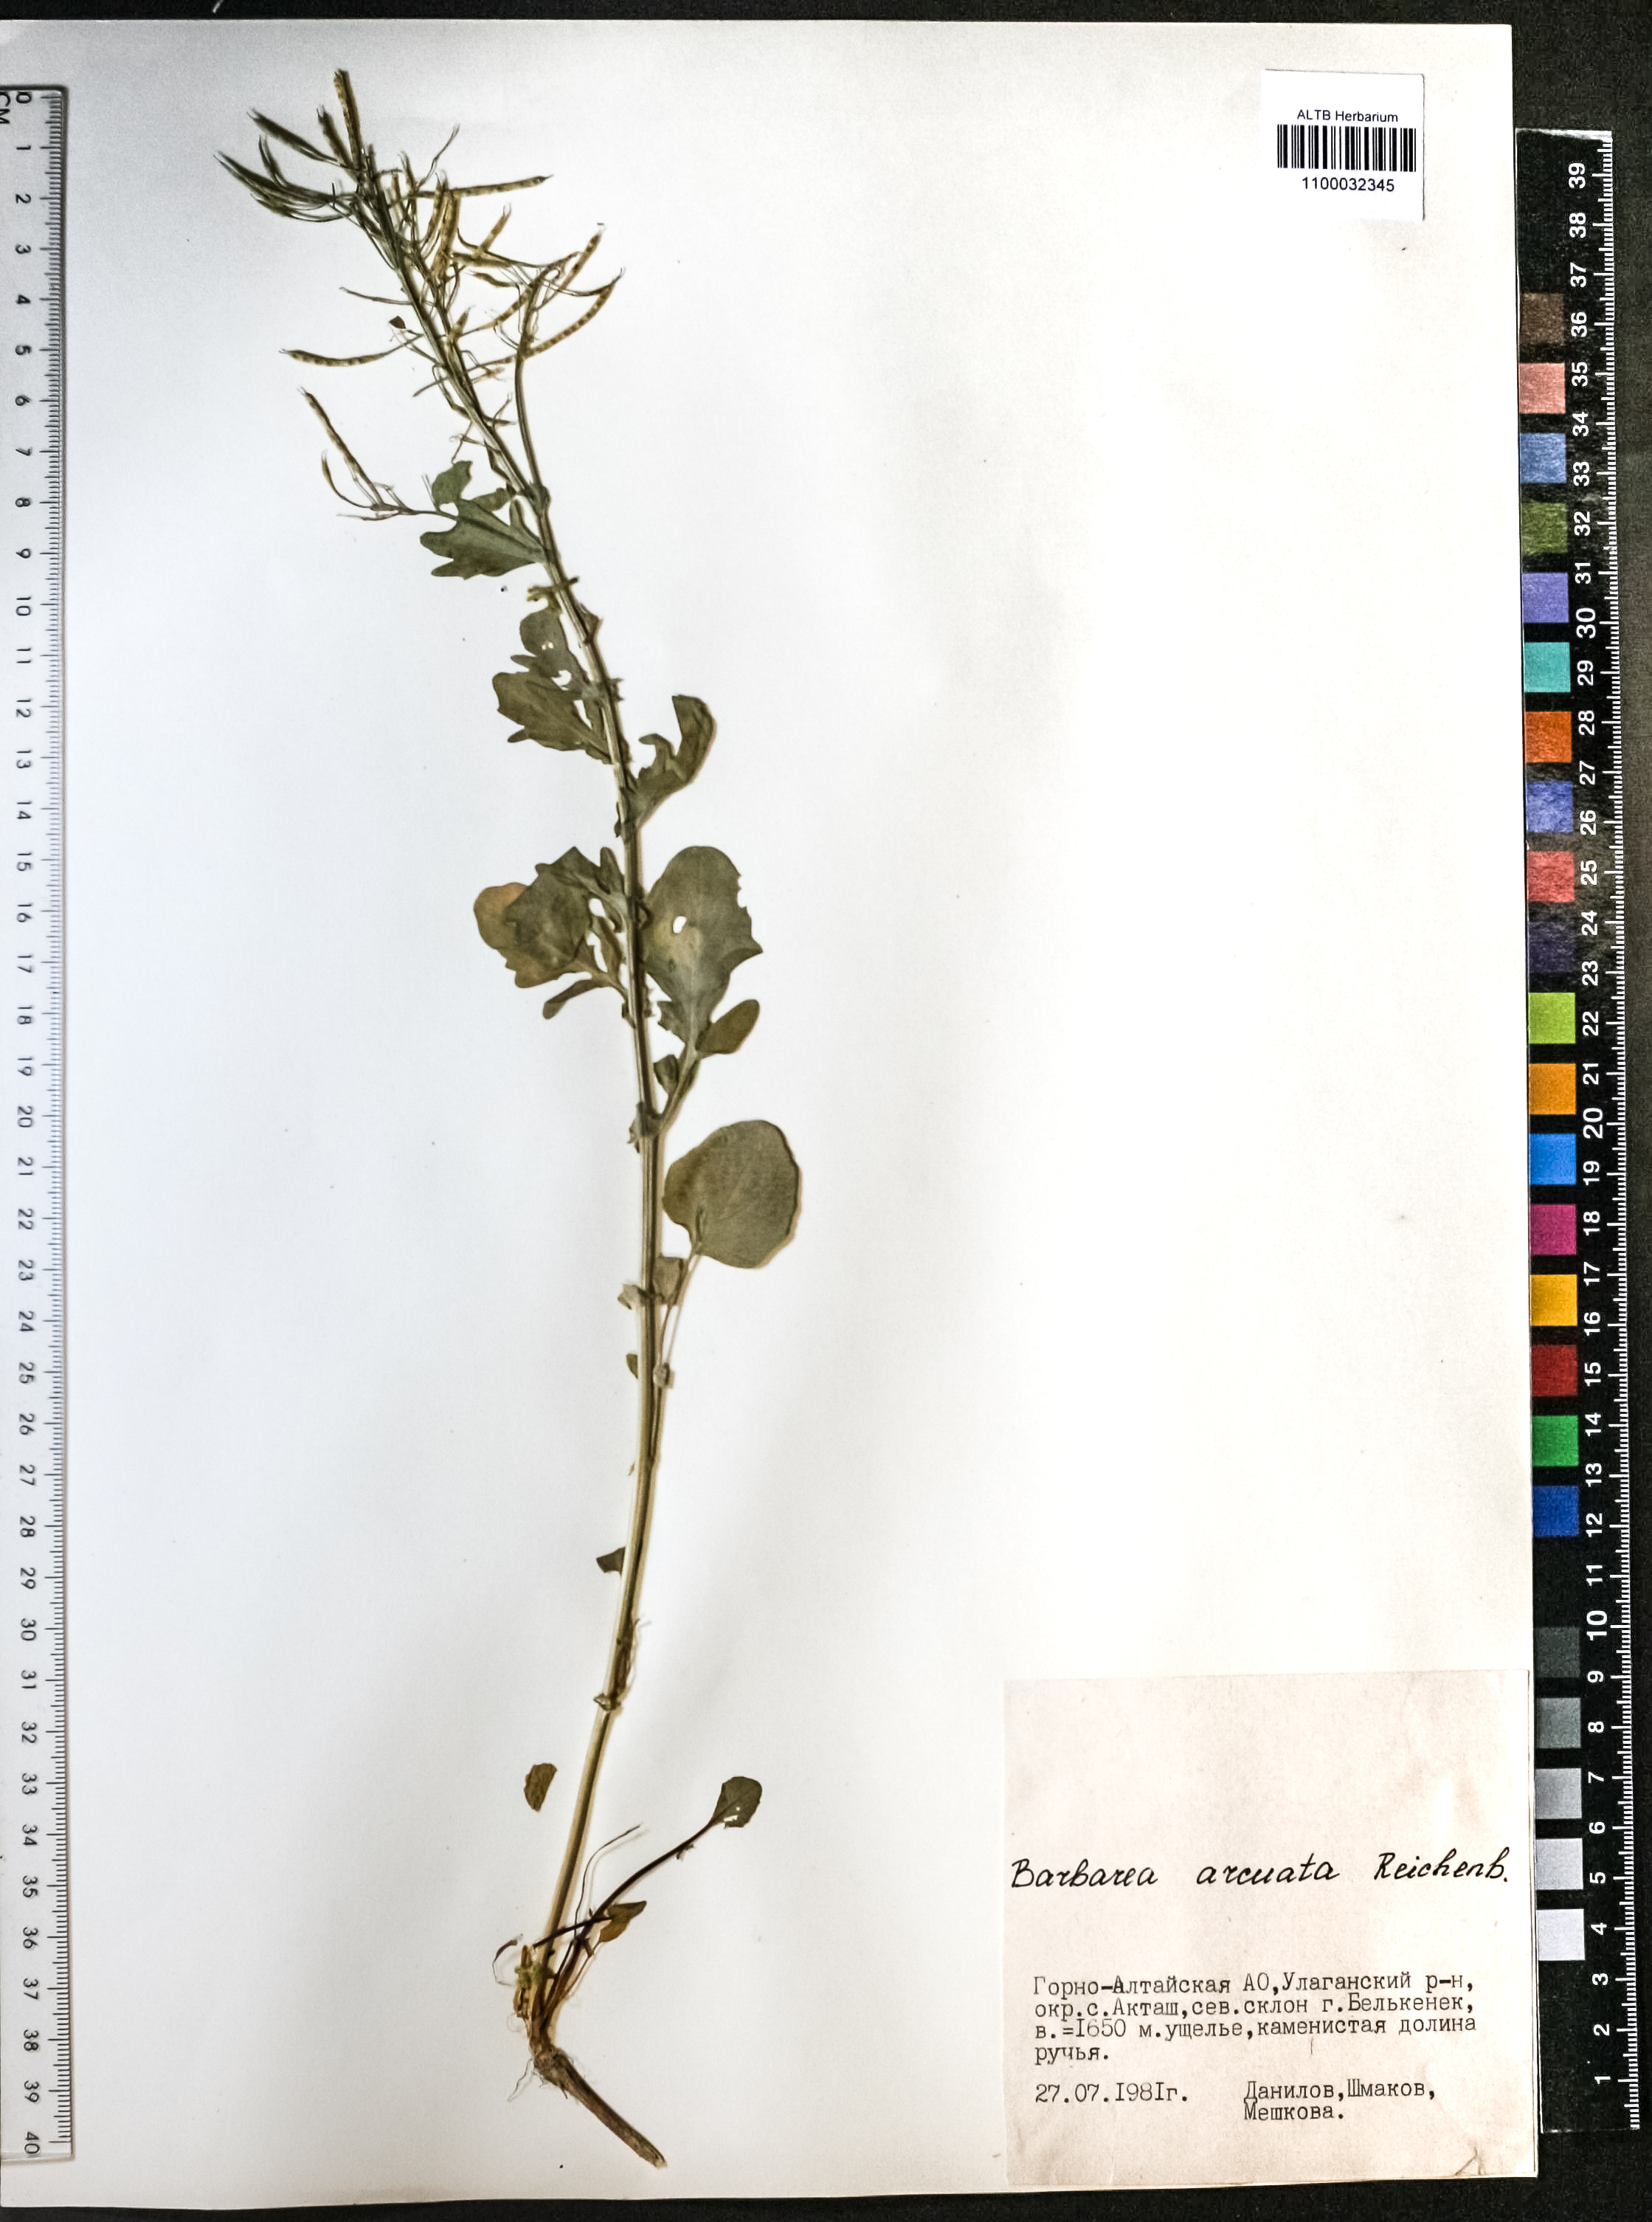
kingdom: Plantae
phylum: Tracheophyta
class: Magnoliopsida
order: Brassicales
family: Brassicaceae
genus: Barbarea
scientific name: Barbarea vulgaris
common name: Cressy-greens
